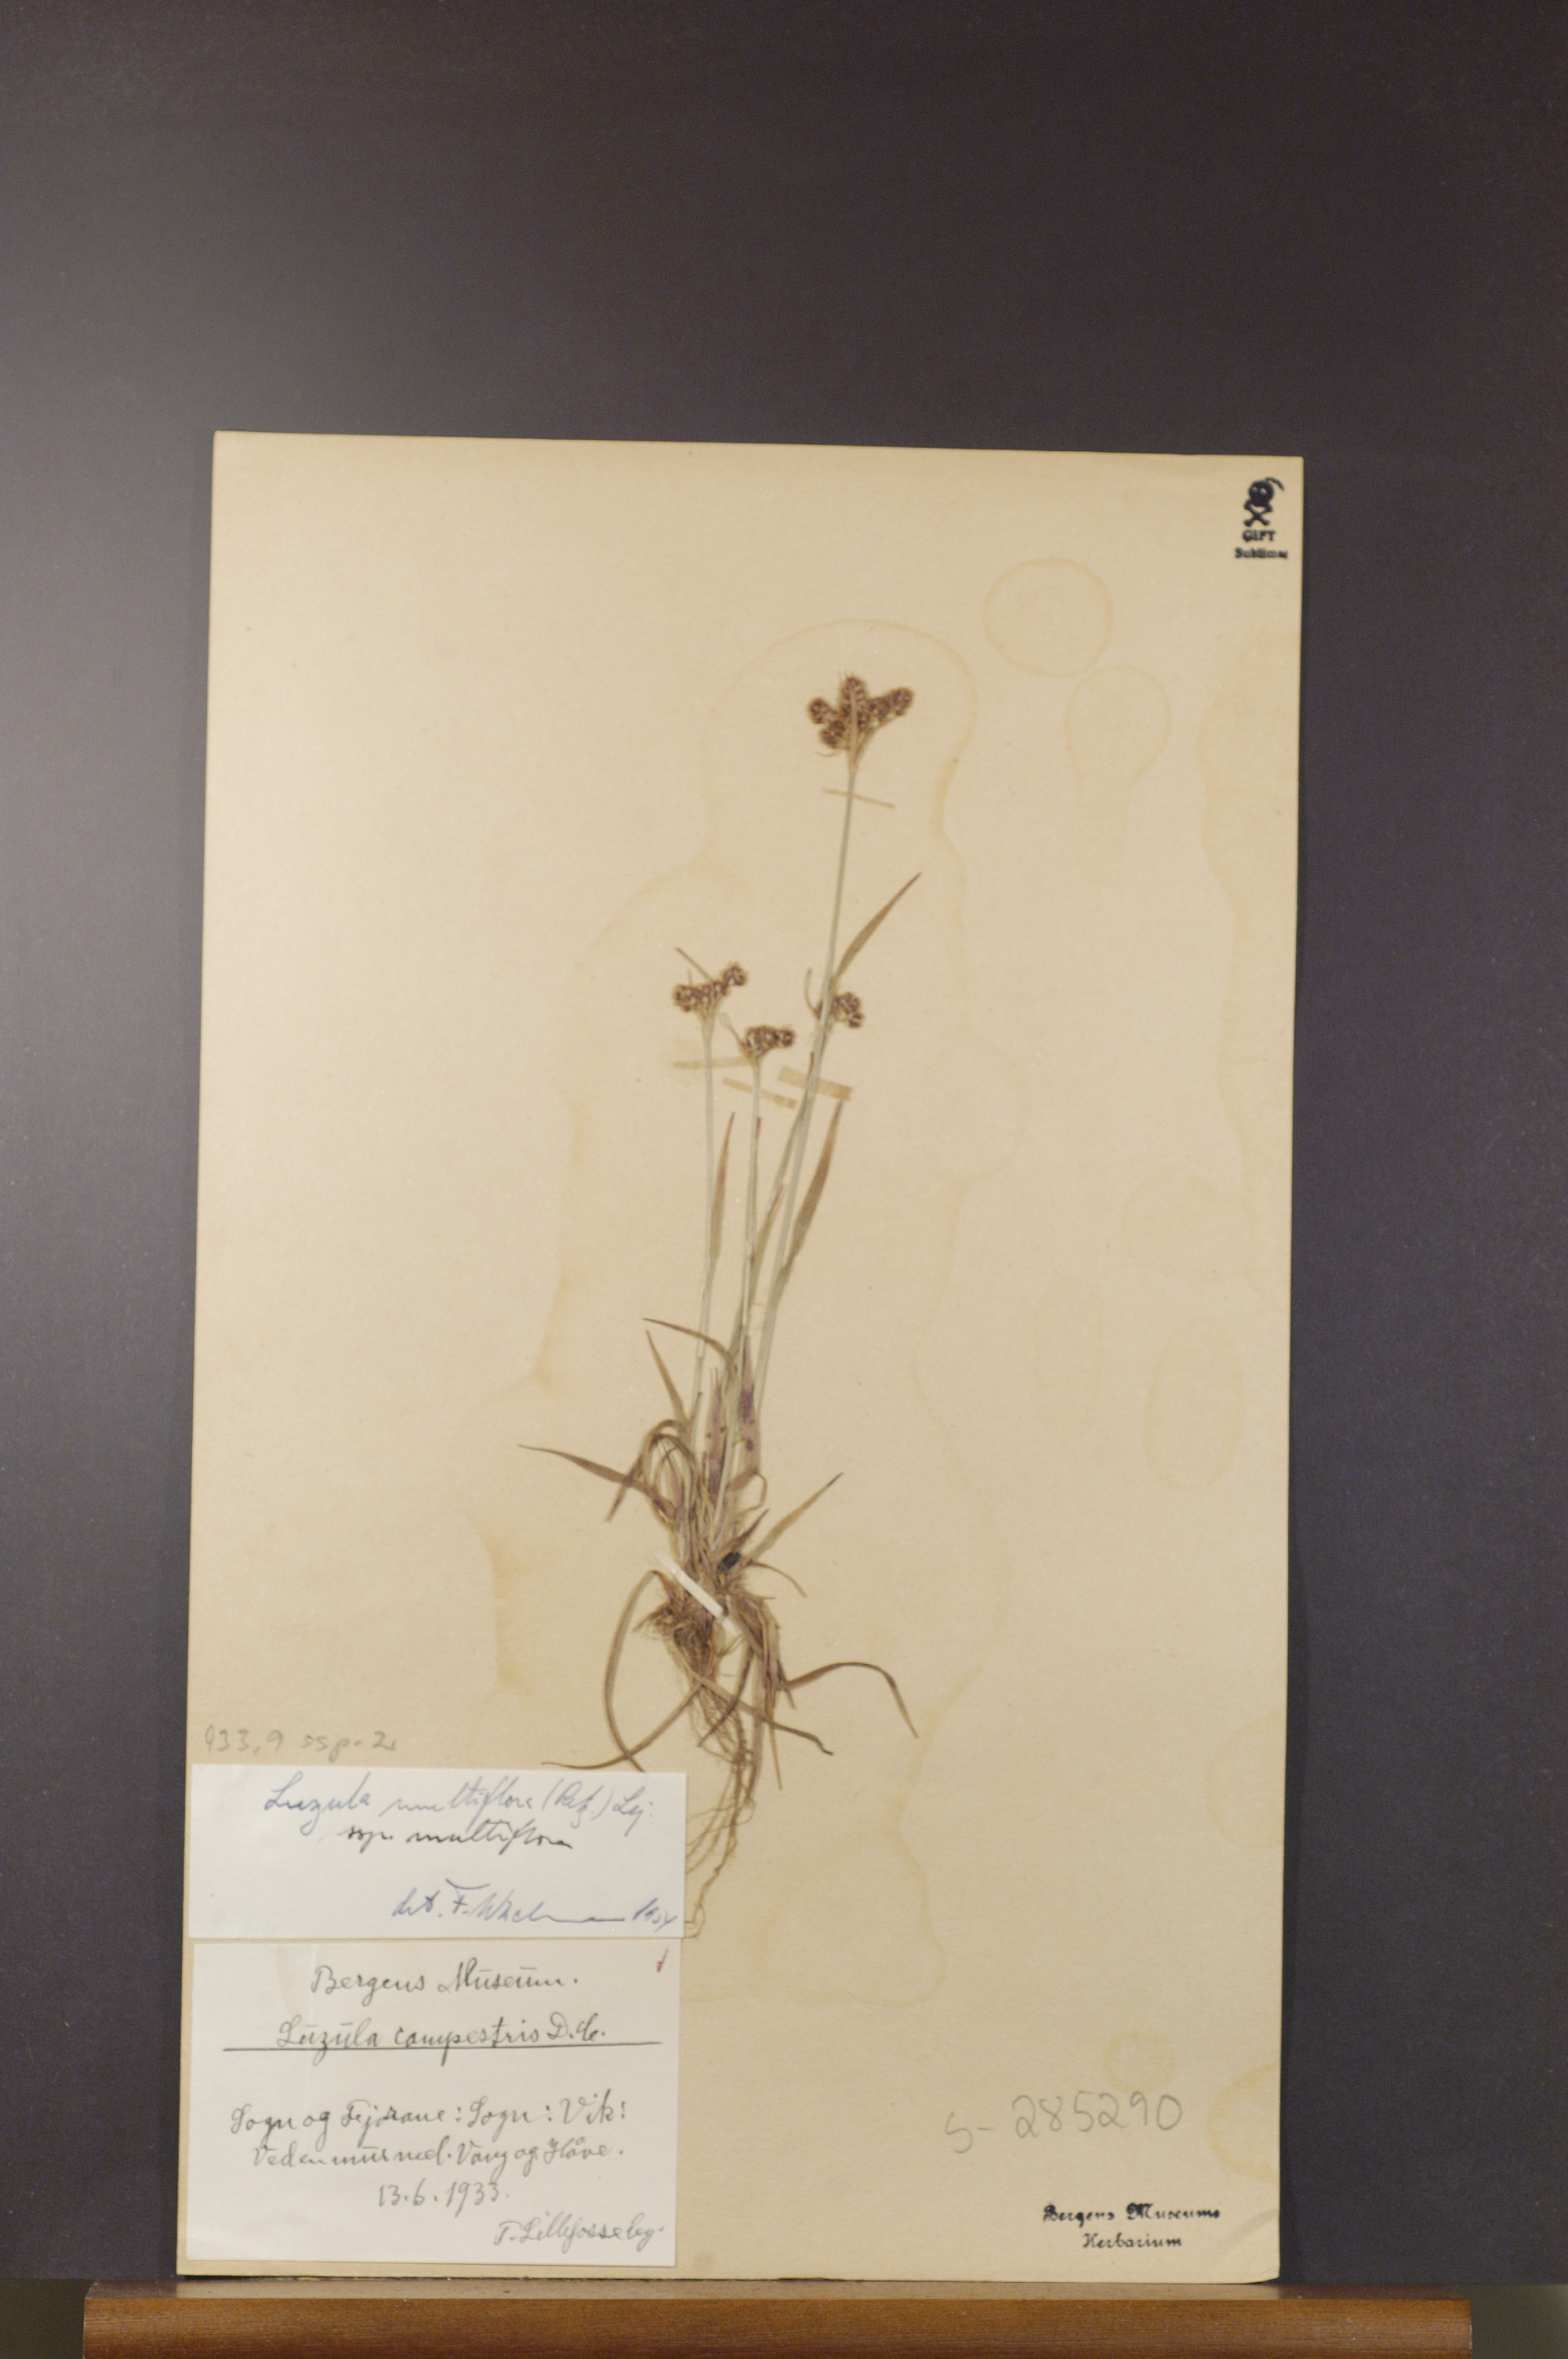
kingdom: Plantae
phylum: Tracheophyta
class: Liliopsida
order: Poales
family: Juncaceae
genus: Luzula
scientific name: Luzula multiflora
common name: Heath wood-rush
